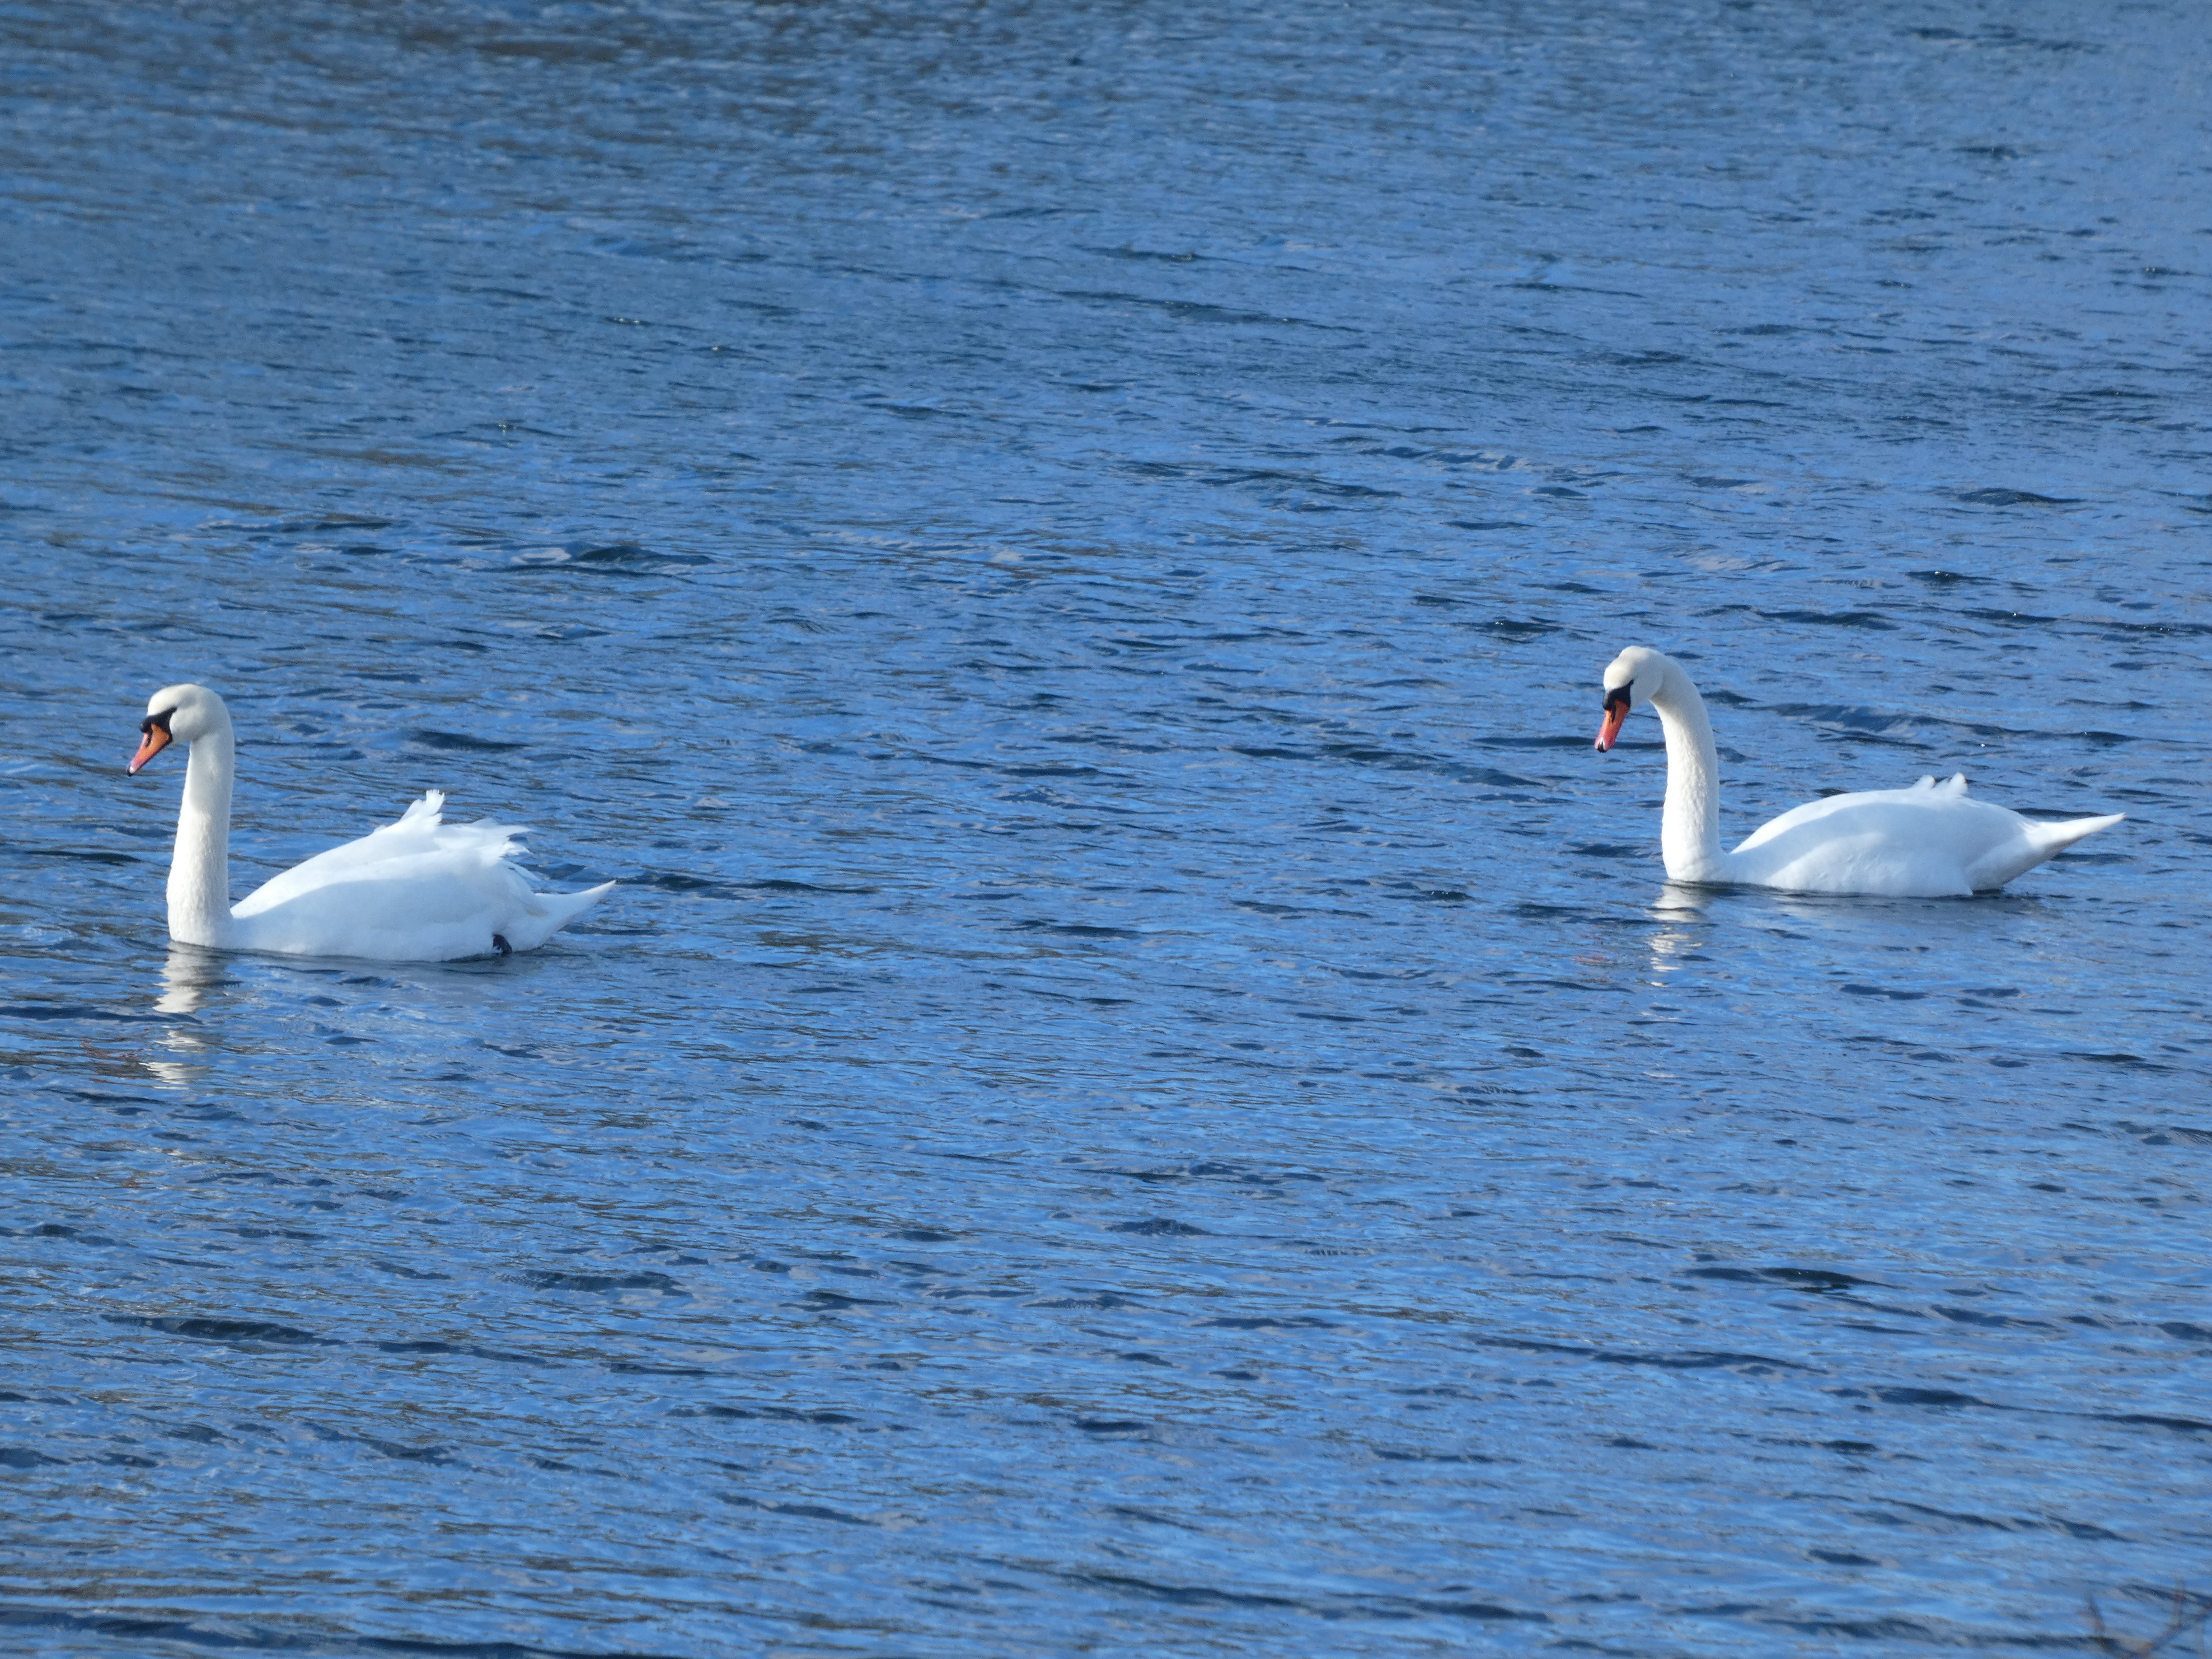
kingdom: Animalia
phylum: Chordata
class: Aves
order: Anseriformes
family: Anatidae
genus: Cygnus
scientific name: Cygnus olor
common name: Knopsvane
